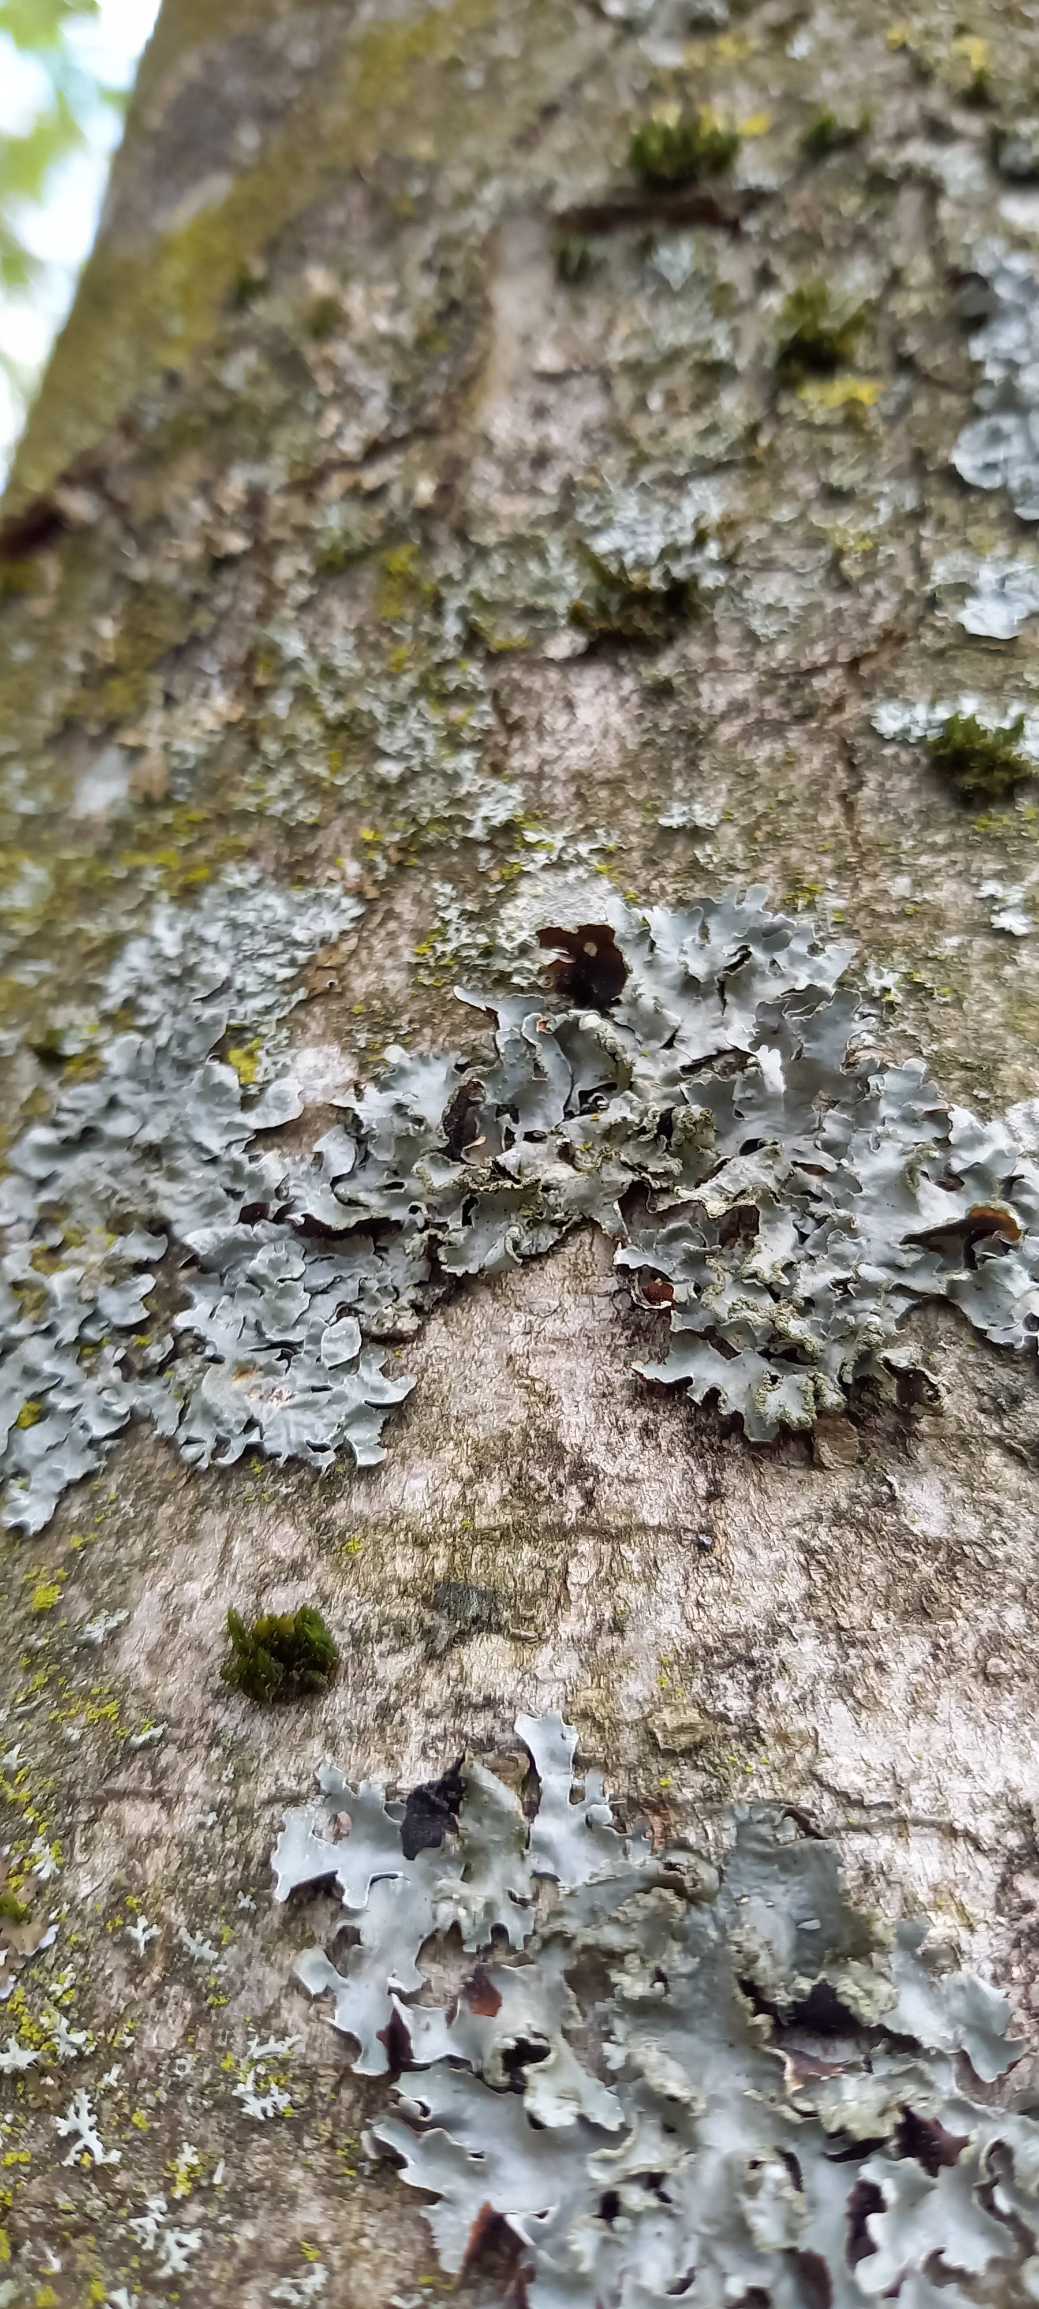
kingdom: Fungi
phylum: Ascomycota
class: Lecanoromycetes
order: Lecanorales
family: Parmeliaceae
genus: Parmelia
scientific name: Parmelia sulcata
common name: Rynket skållav
